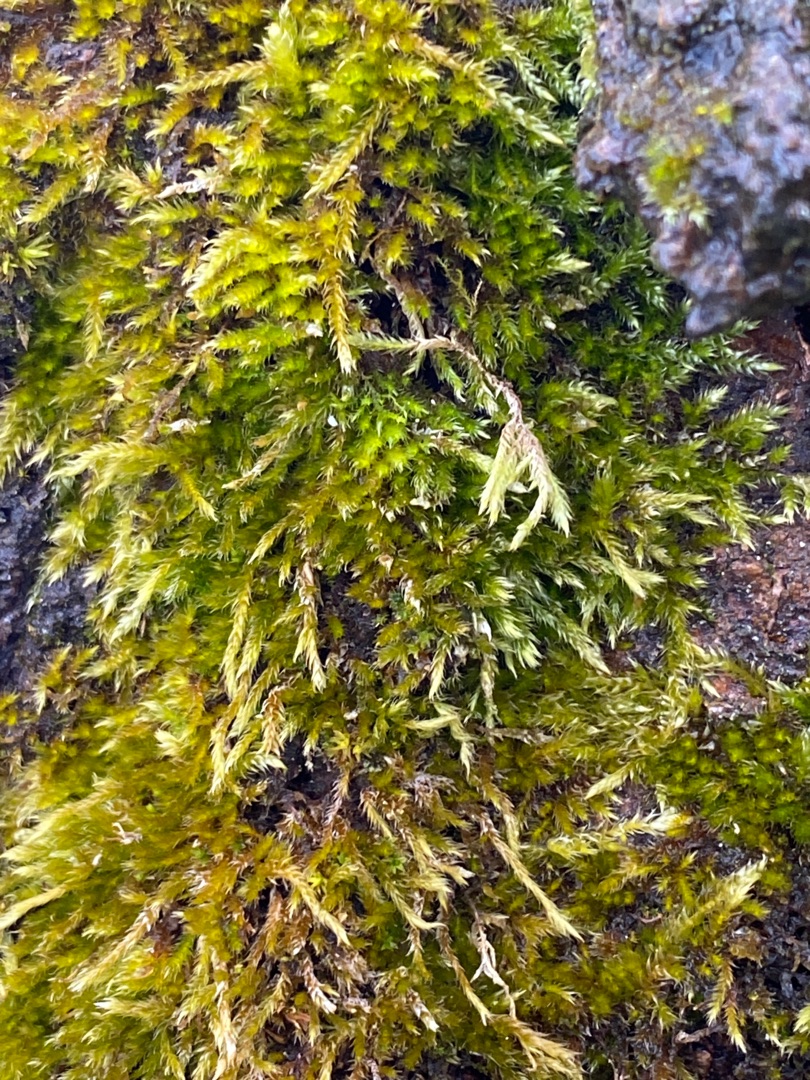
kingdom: Plantae
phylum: Bryophyta
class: Bryopsida
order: Hypnales
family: Hypnaceae
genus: Hypnum
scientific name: Hypnum
